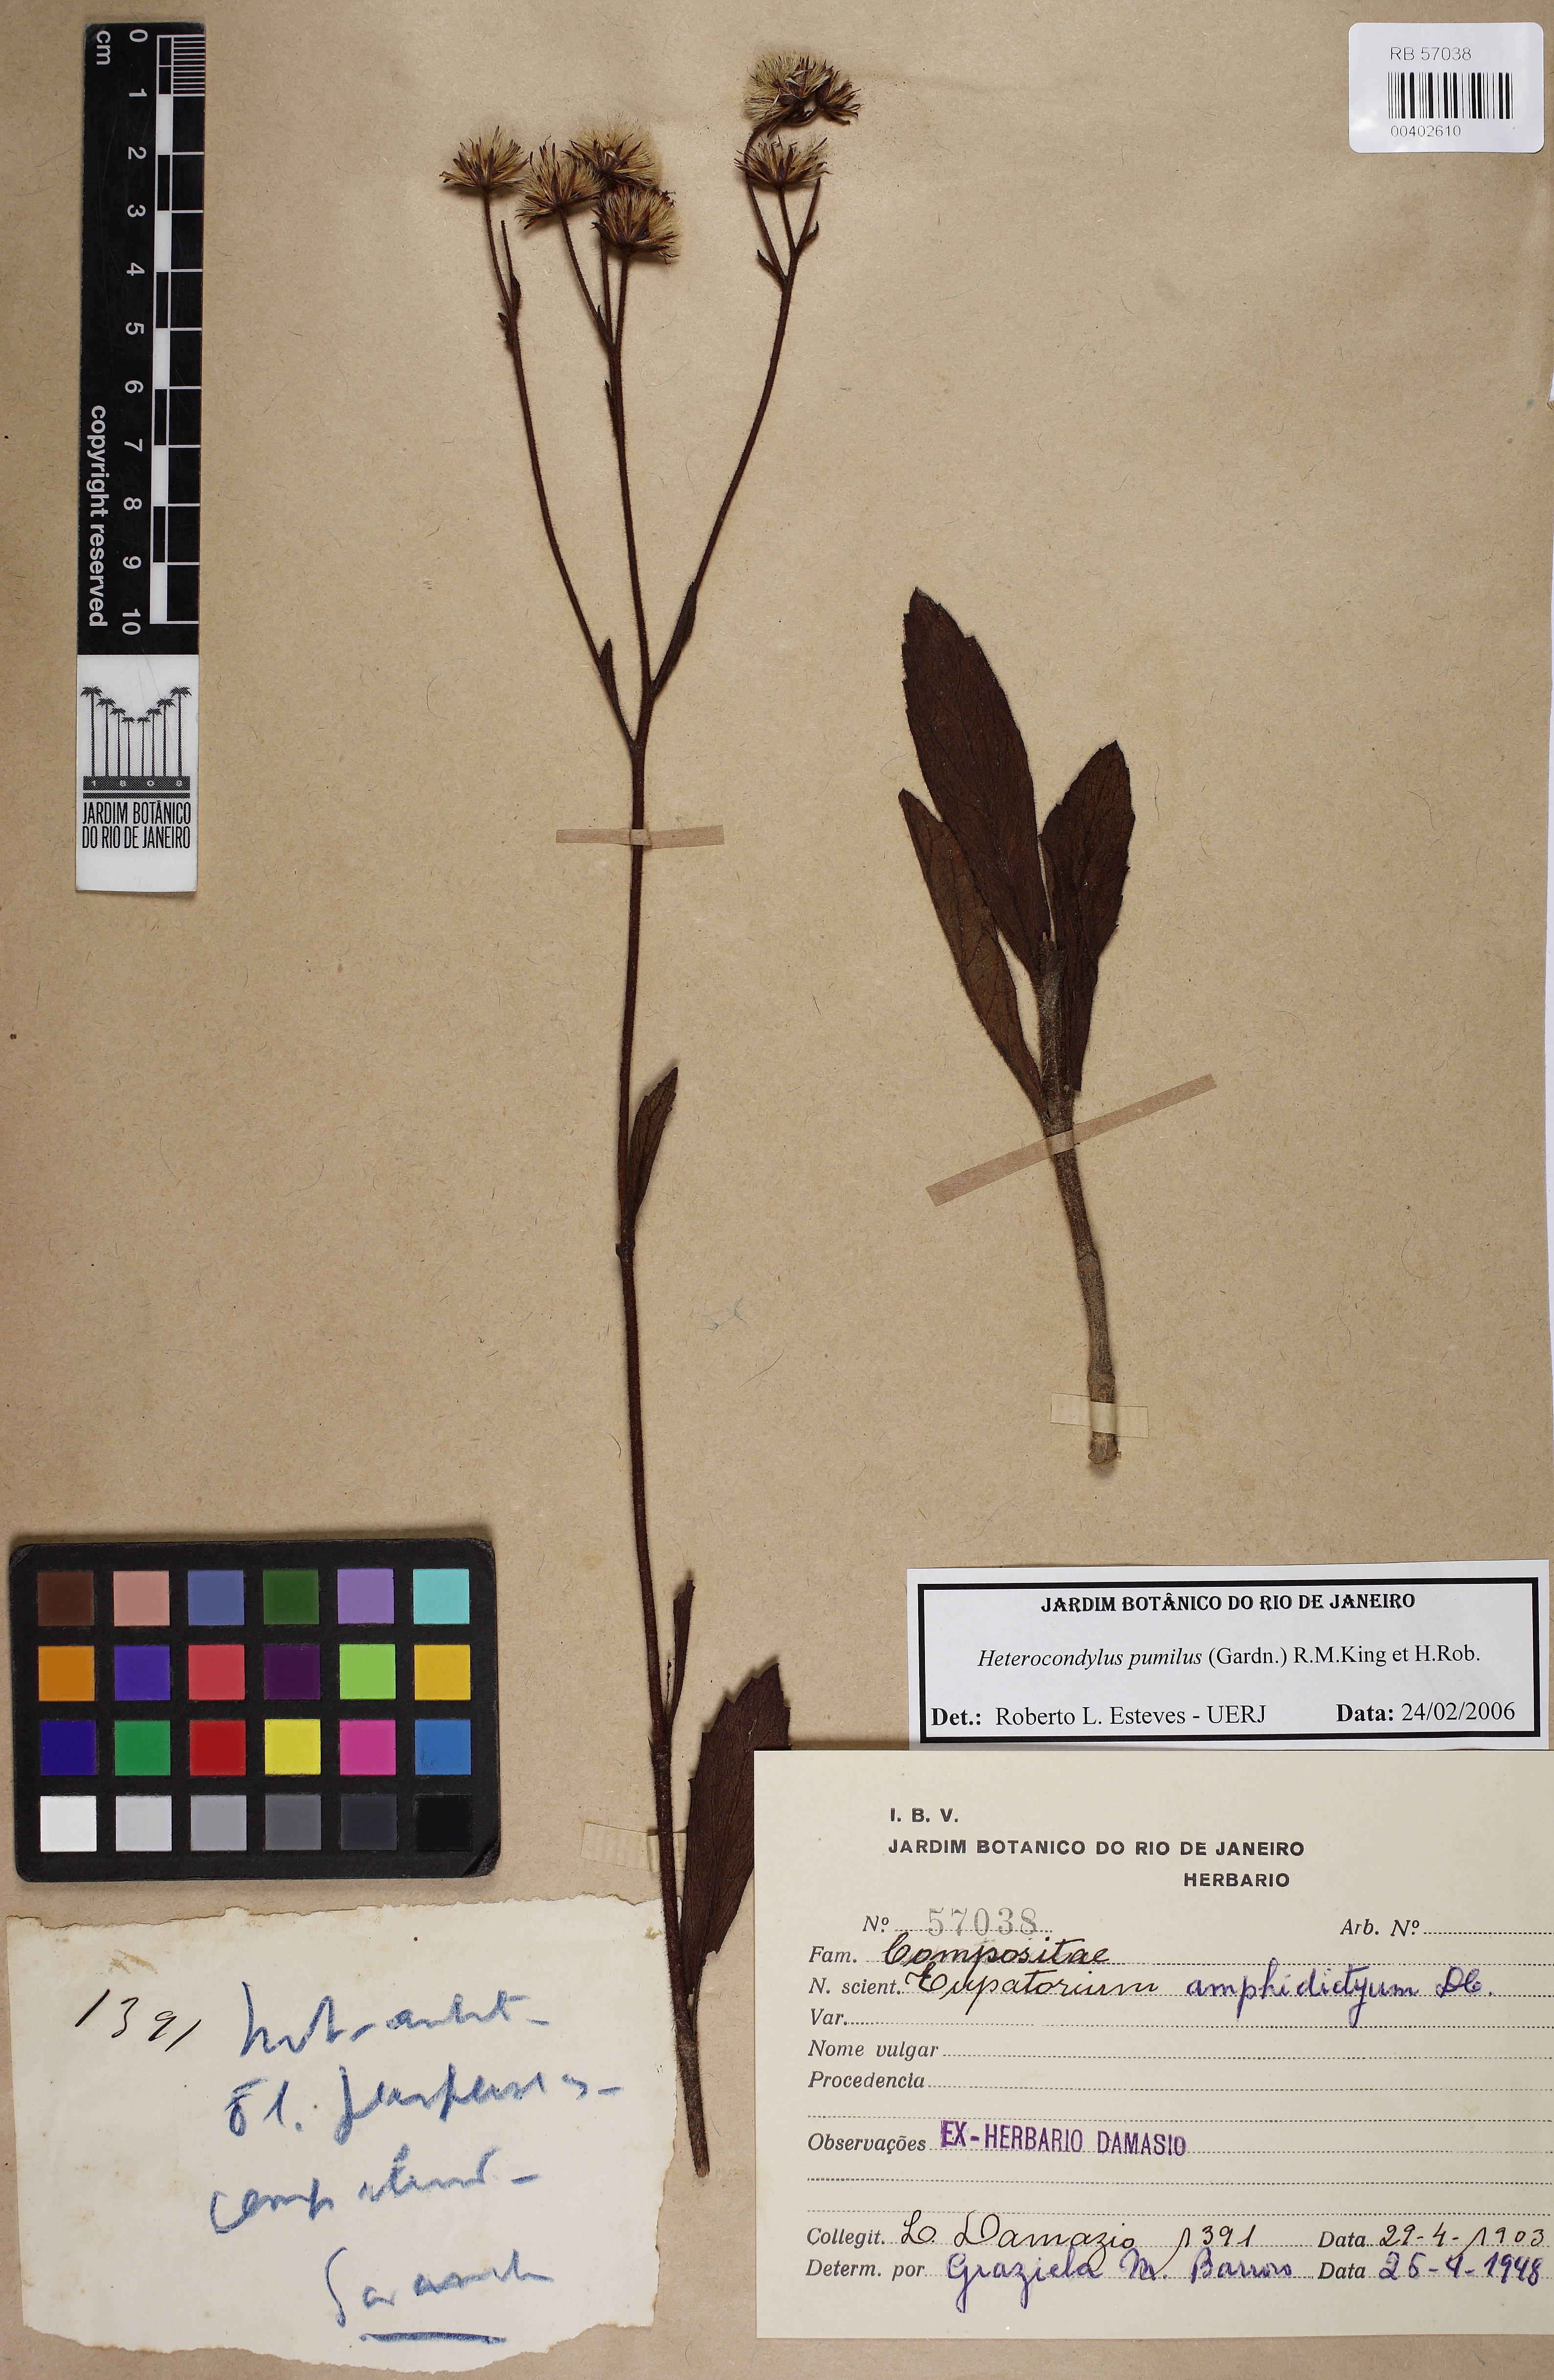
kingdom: Plantae
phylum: Tracheophyta
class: Magnoliopsida
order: Asterales
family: Asteraceae
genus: Heterocondylus
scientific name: Heterocondylus pumilus
